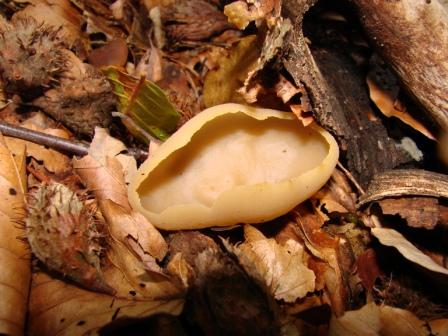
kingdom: Fungi
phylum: Ascomycota
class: Pezizomycetes
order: Pezizales
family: Pezizaceae
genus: Paragalactinia
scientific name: Paragalactinia succosa
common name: gulmælket bægersvamp
